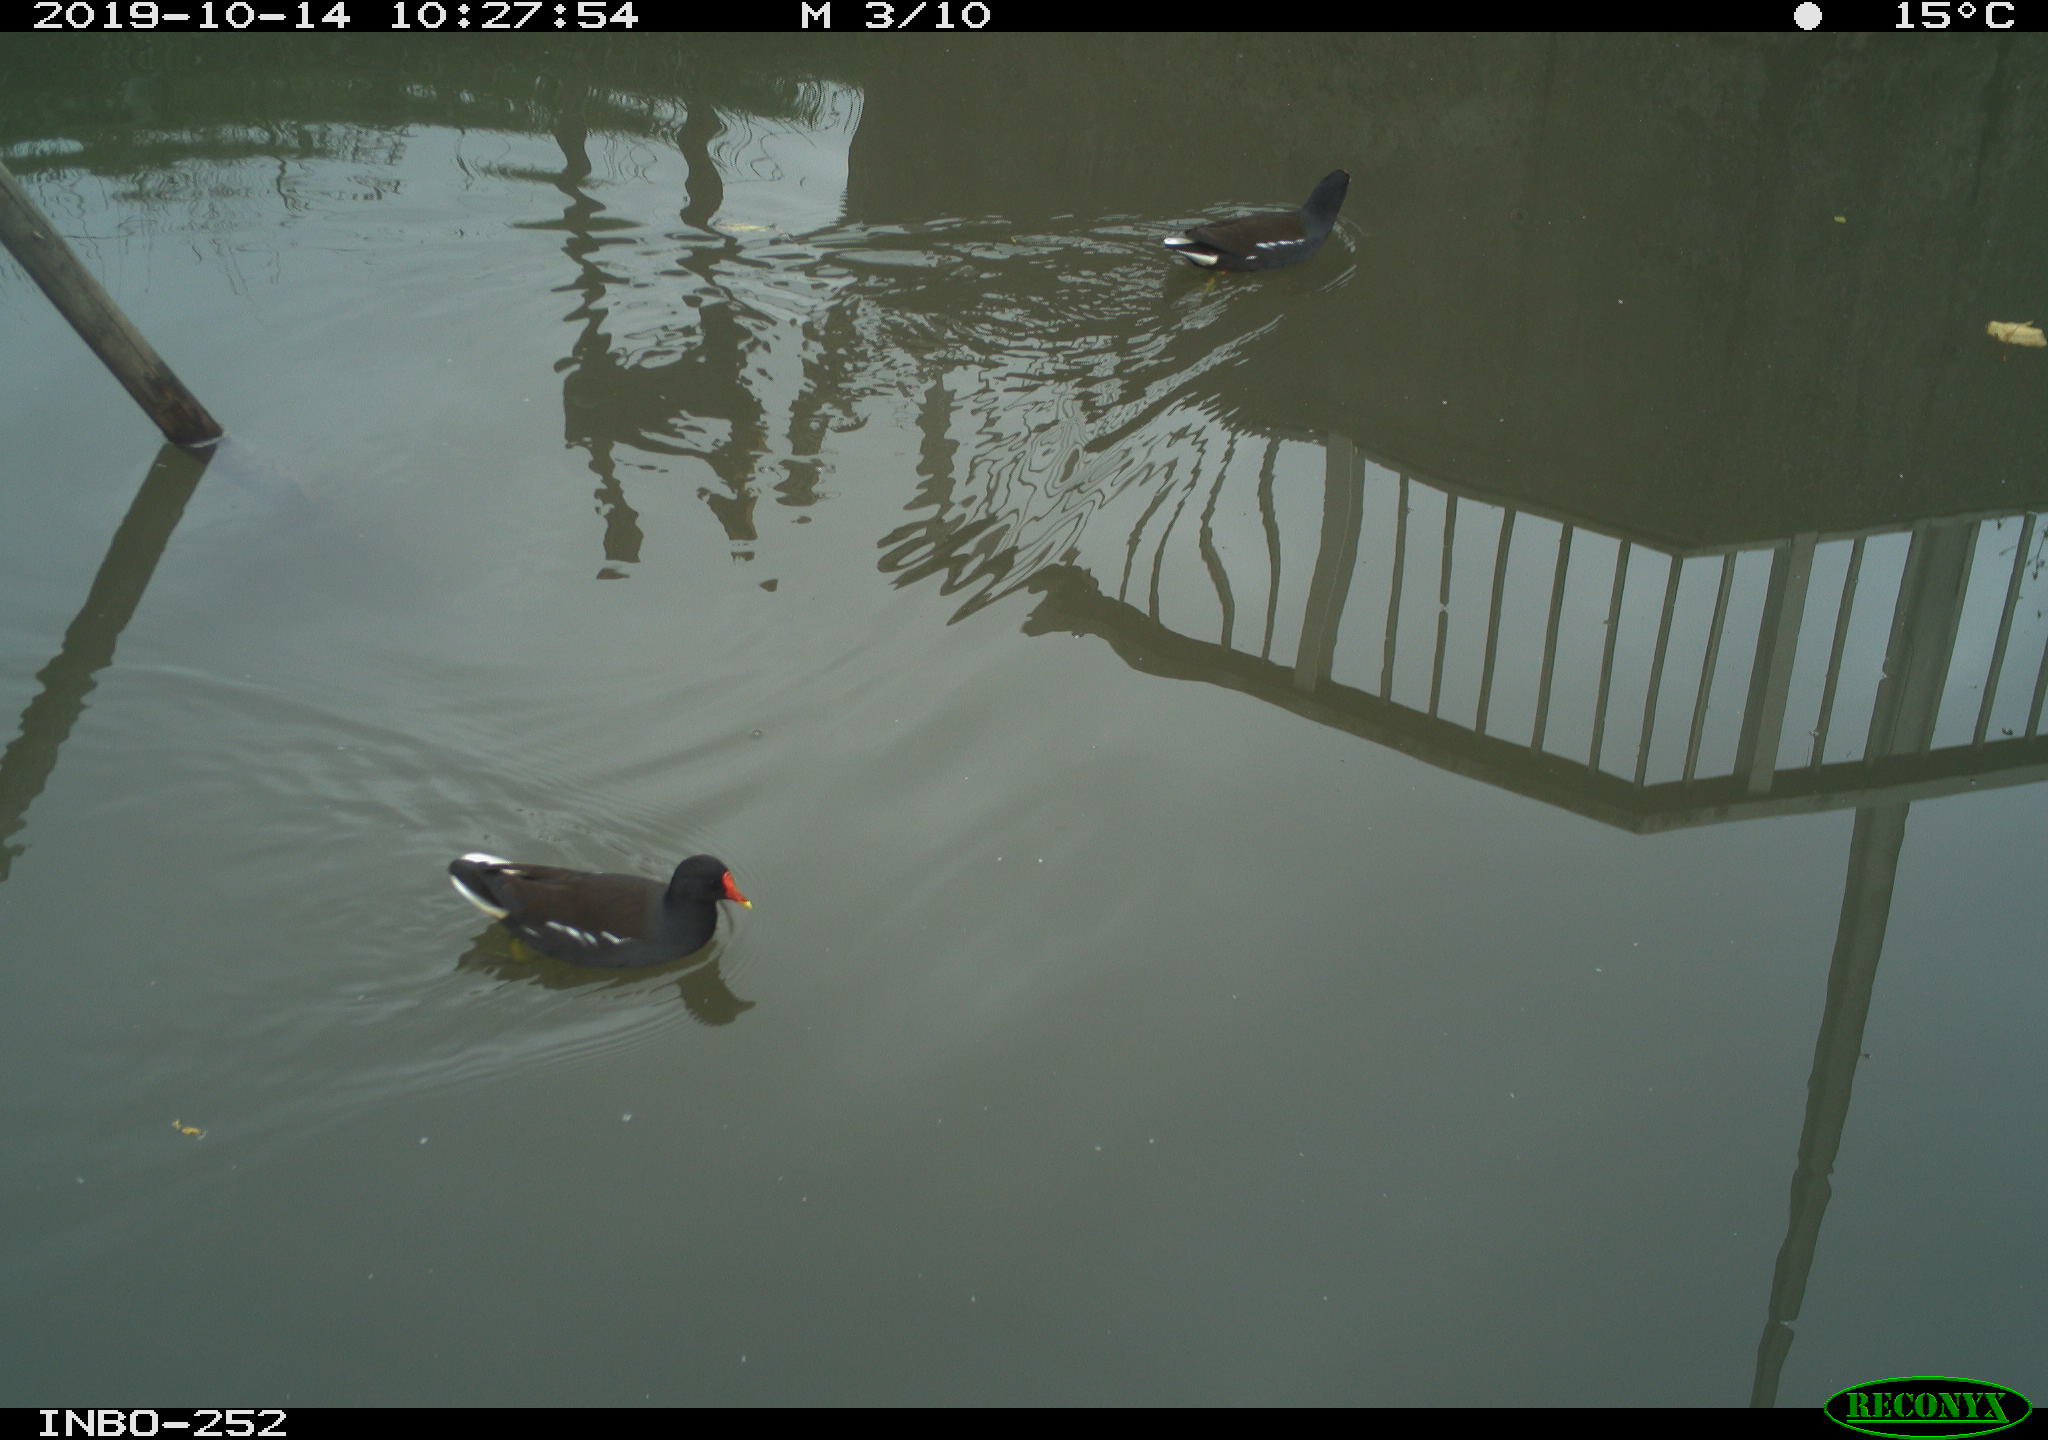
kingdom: Animalia
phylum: Chordata
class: Aves
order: Gruiformes
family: Rallidae
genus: Gallinula
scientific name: Gallinula chloropus
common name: Common moorhen
